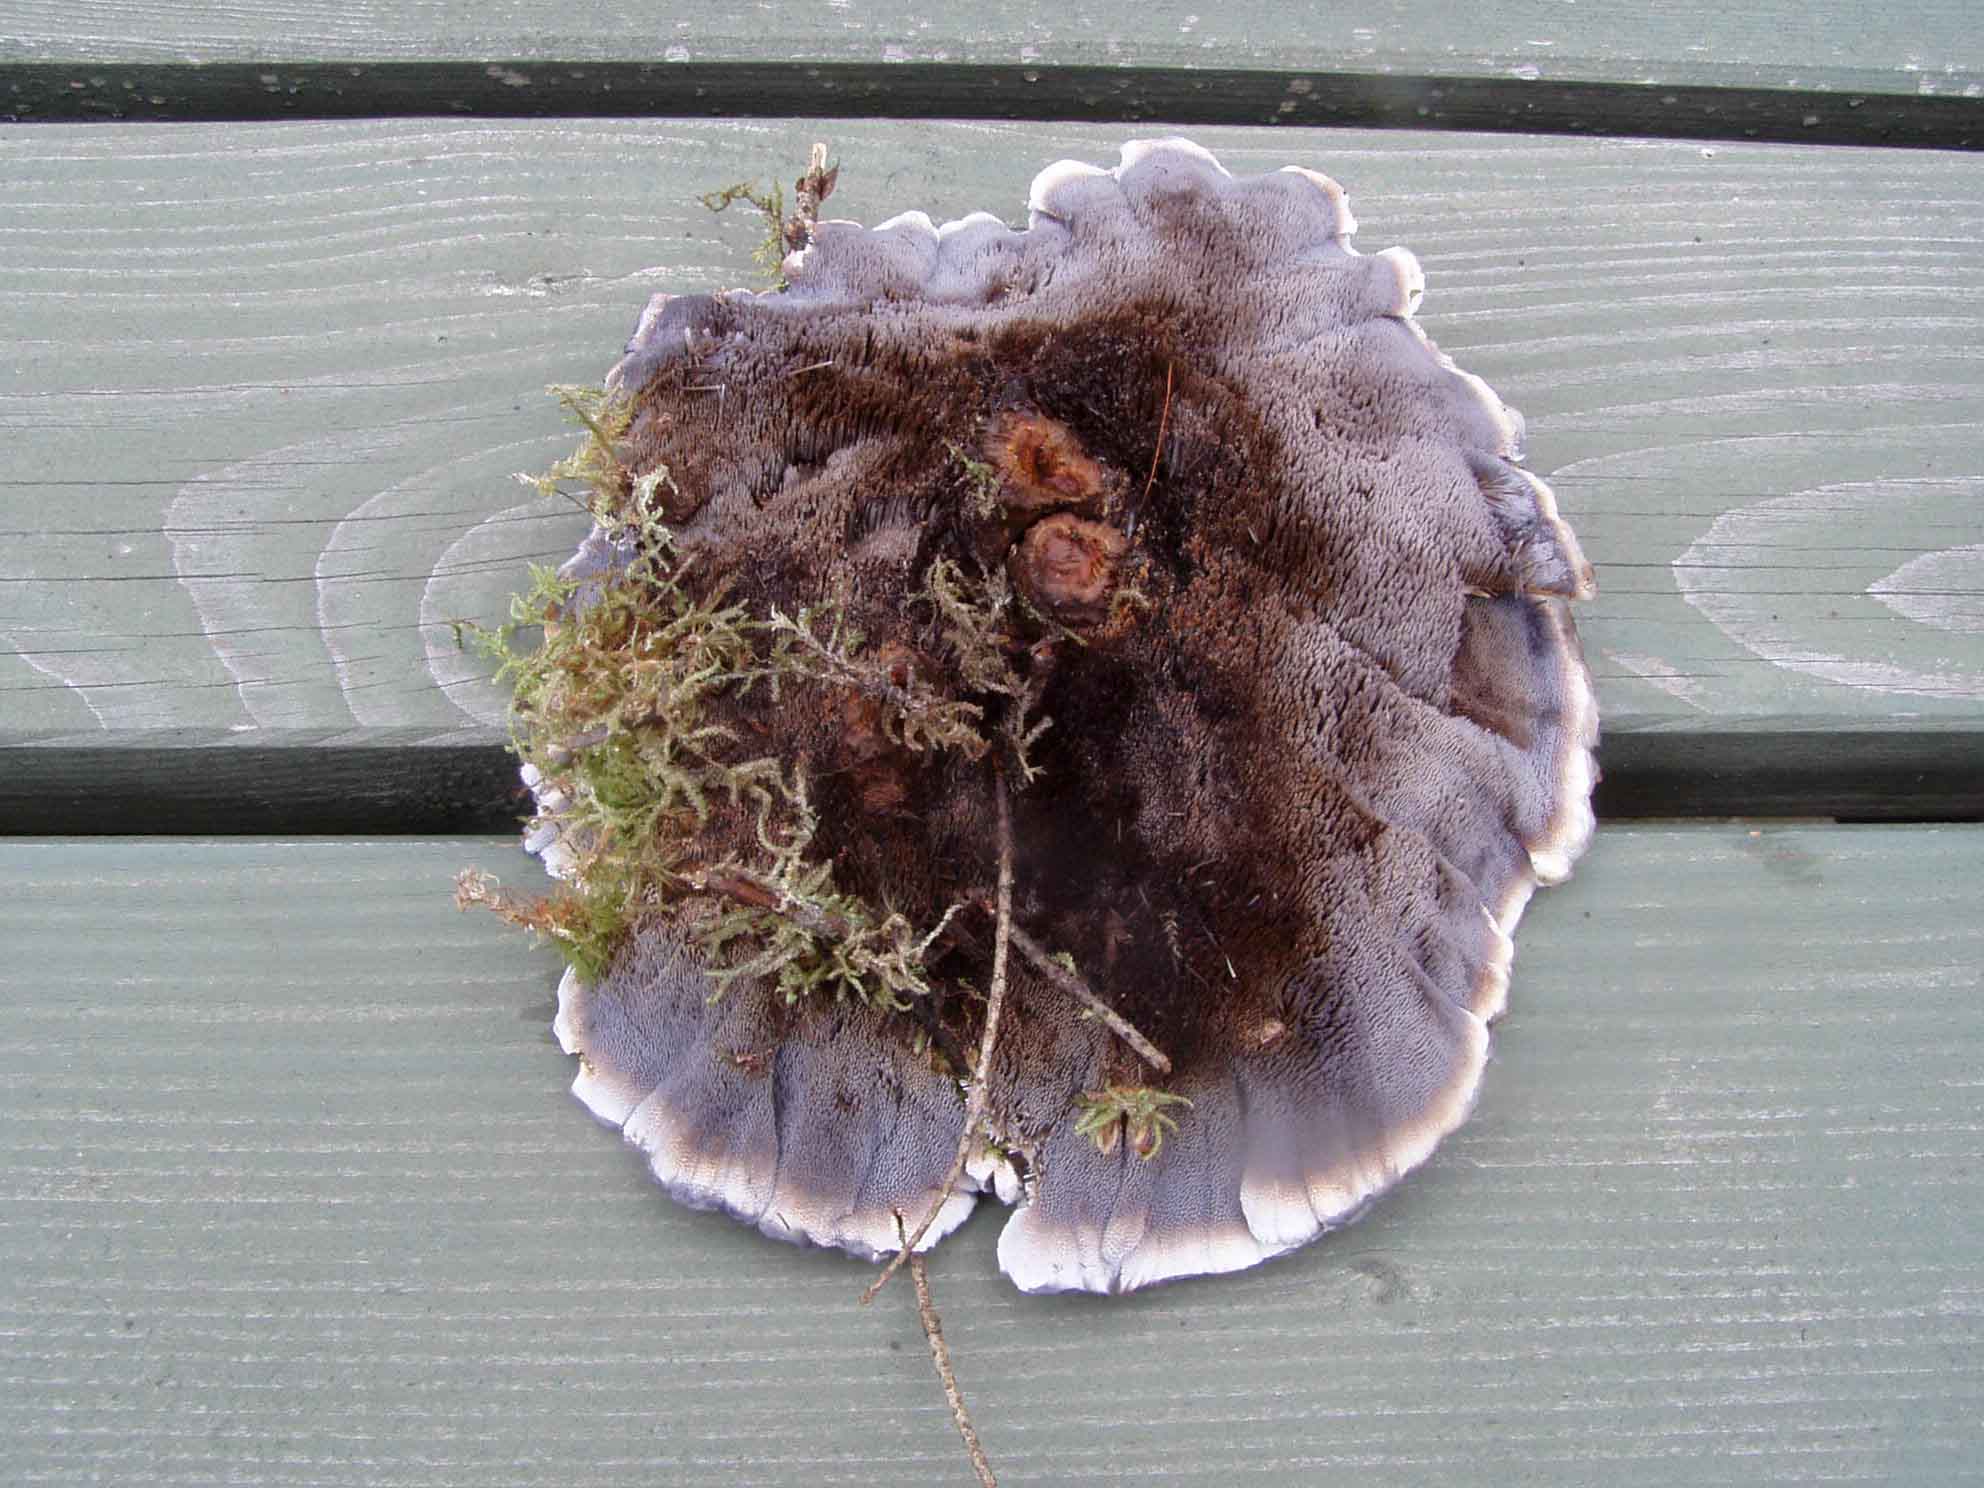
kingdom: Fungi
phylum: Basidiomycota
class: Agaricomycetes
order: Thelephorales
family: Bankeraceae
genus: Hydnellum
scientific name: Hydnellum caeruleum
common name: blålig korkpigsvamp
